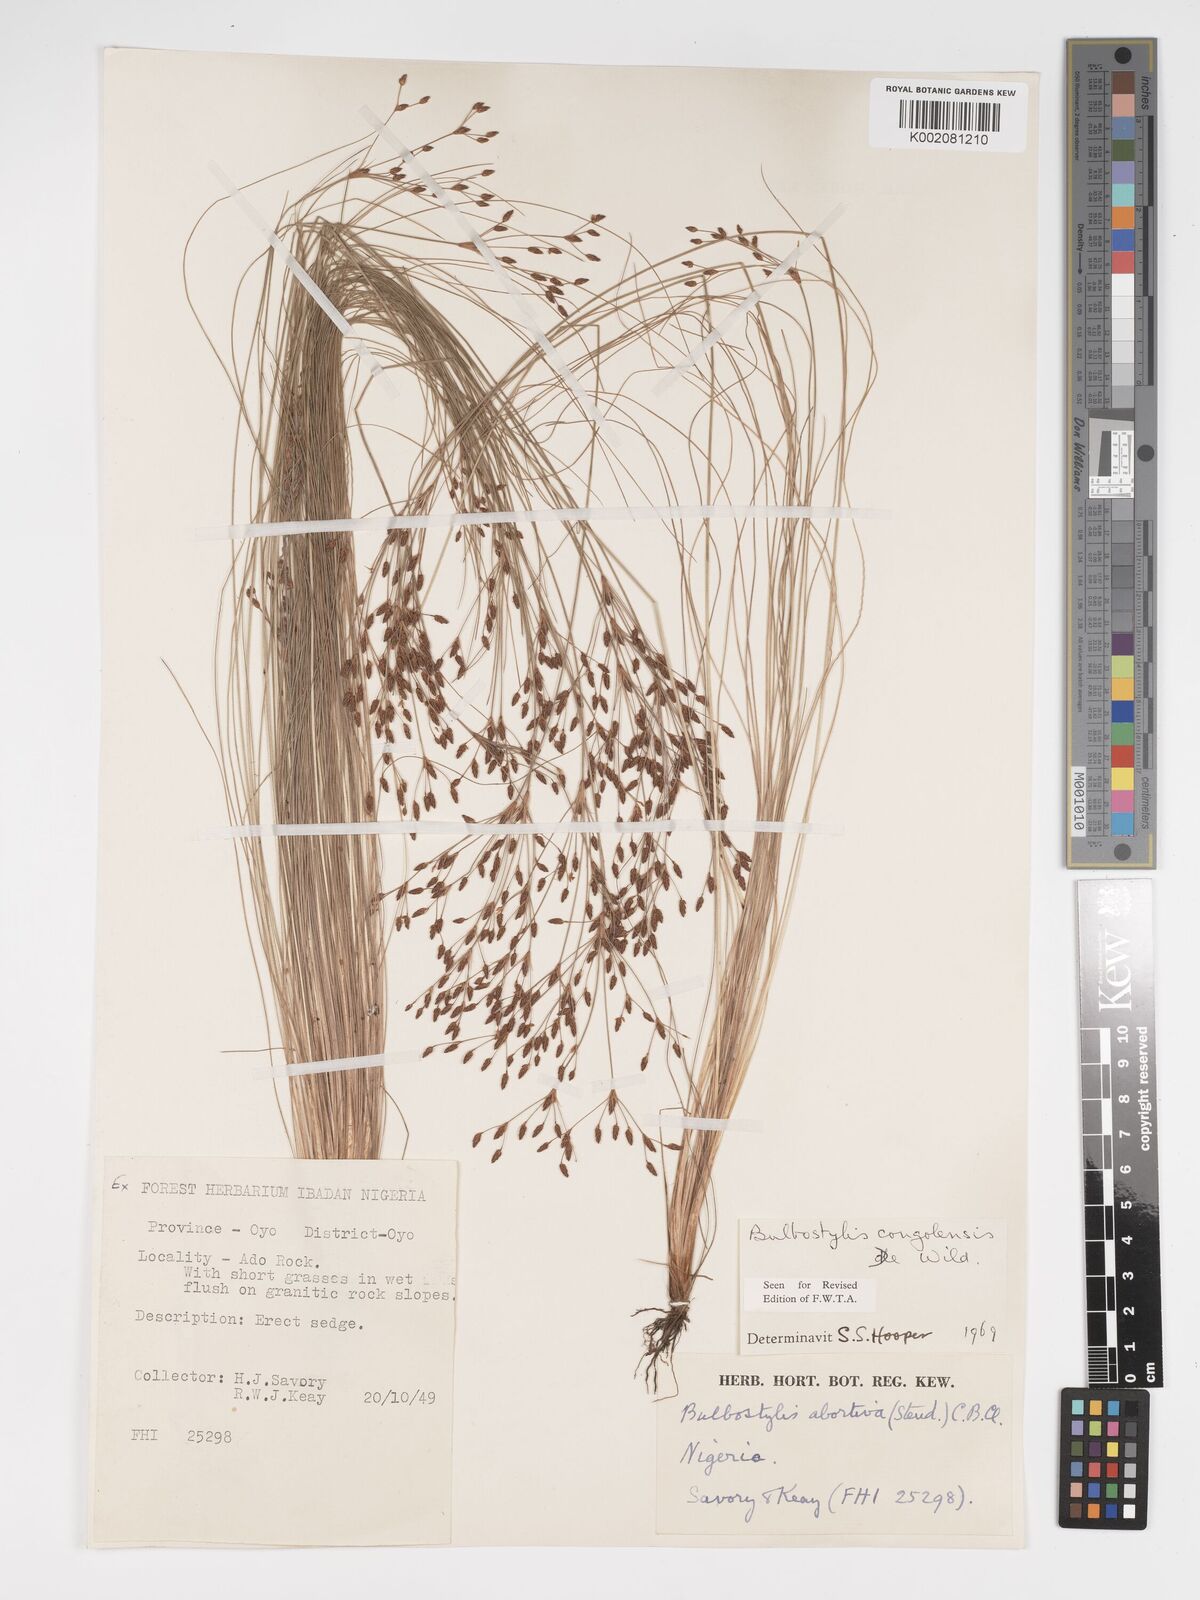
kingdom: Plantae
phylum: Tracheophyta
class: Liliopsida
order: Poales
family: Cyperaceae
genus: Bulbostylis
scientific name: Bulbostylis congolensis
